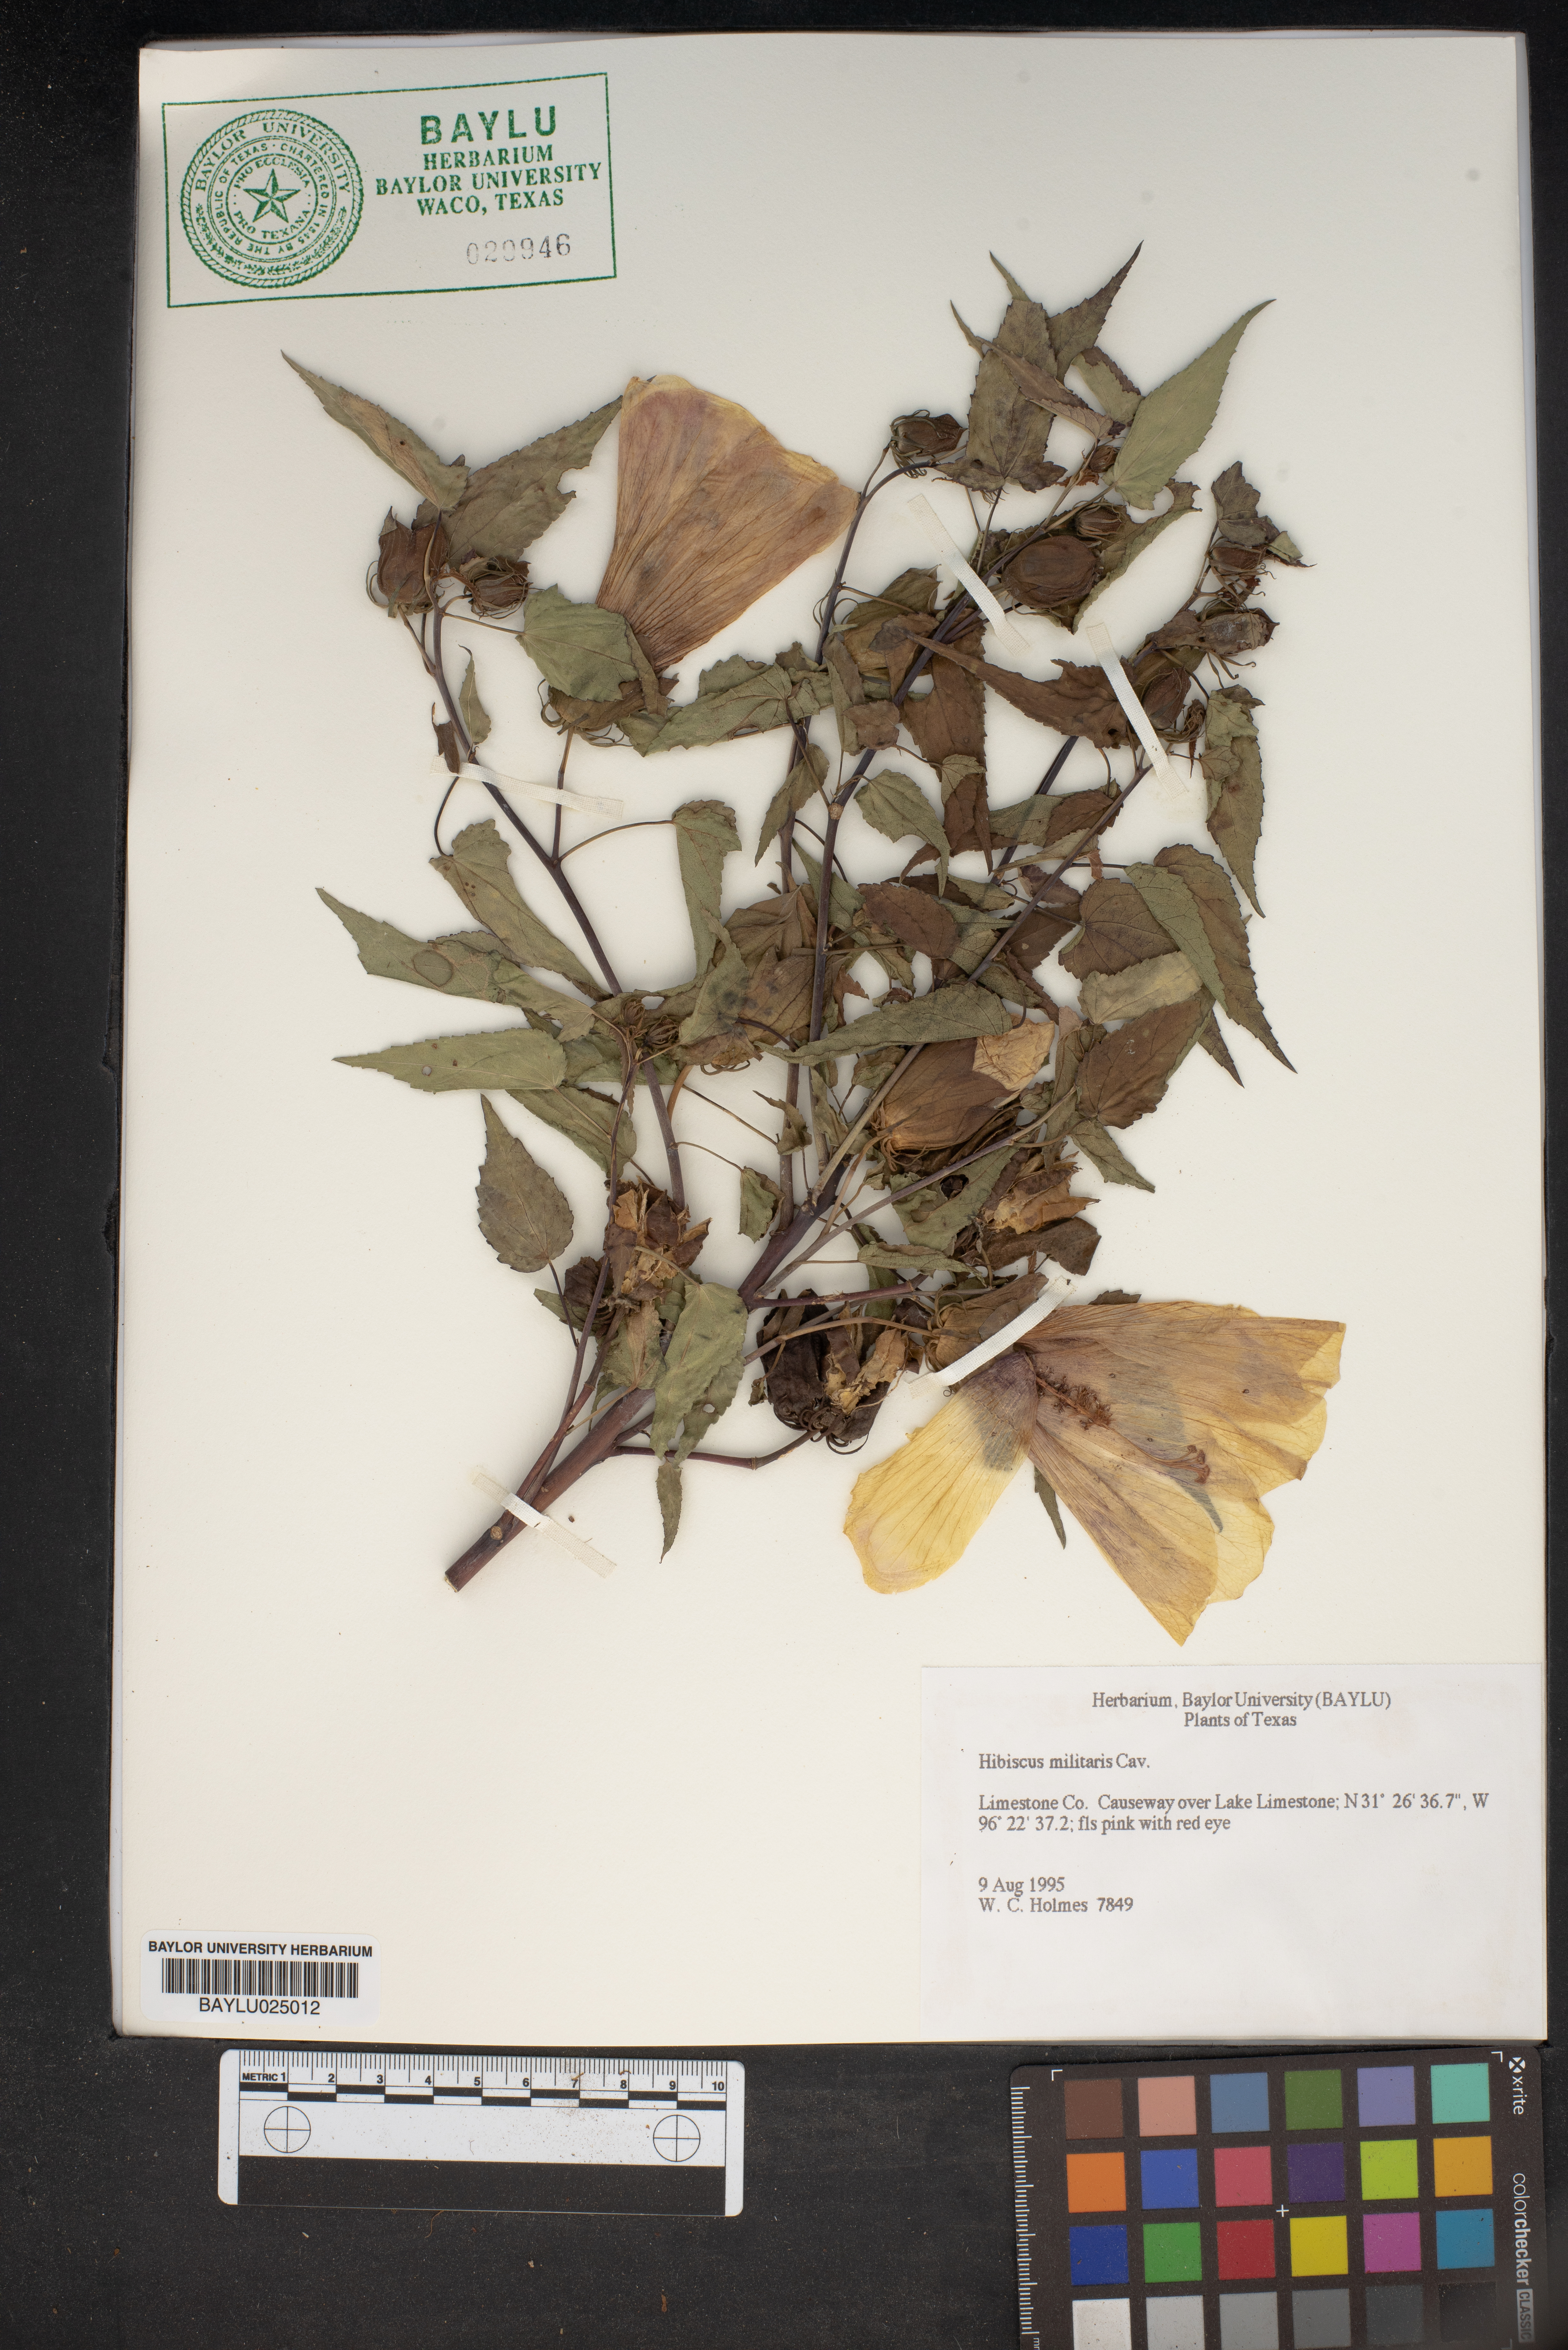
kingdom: Plantae
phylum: Tracheophyta
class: Magnoliopsida
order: Malvales
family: Malvaceae
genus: Hibiscus
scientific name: Hibiscus laevis
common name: Scarlet rose-mallow
